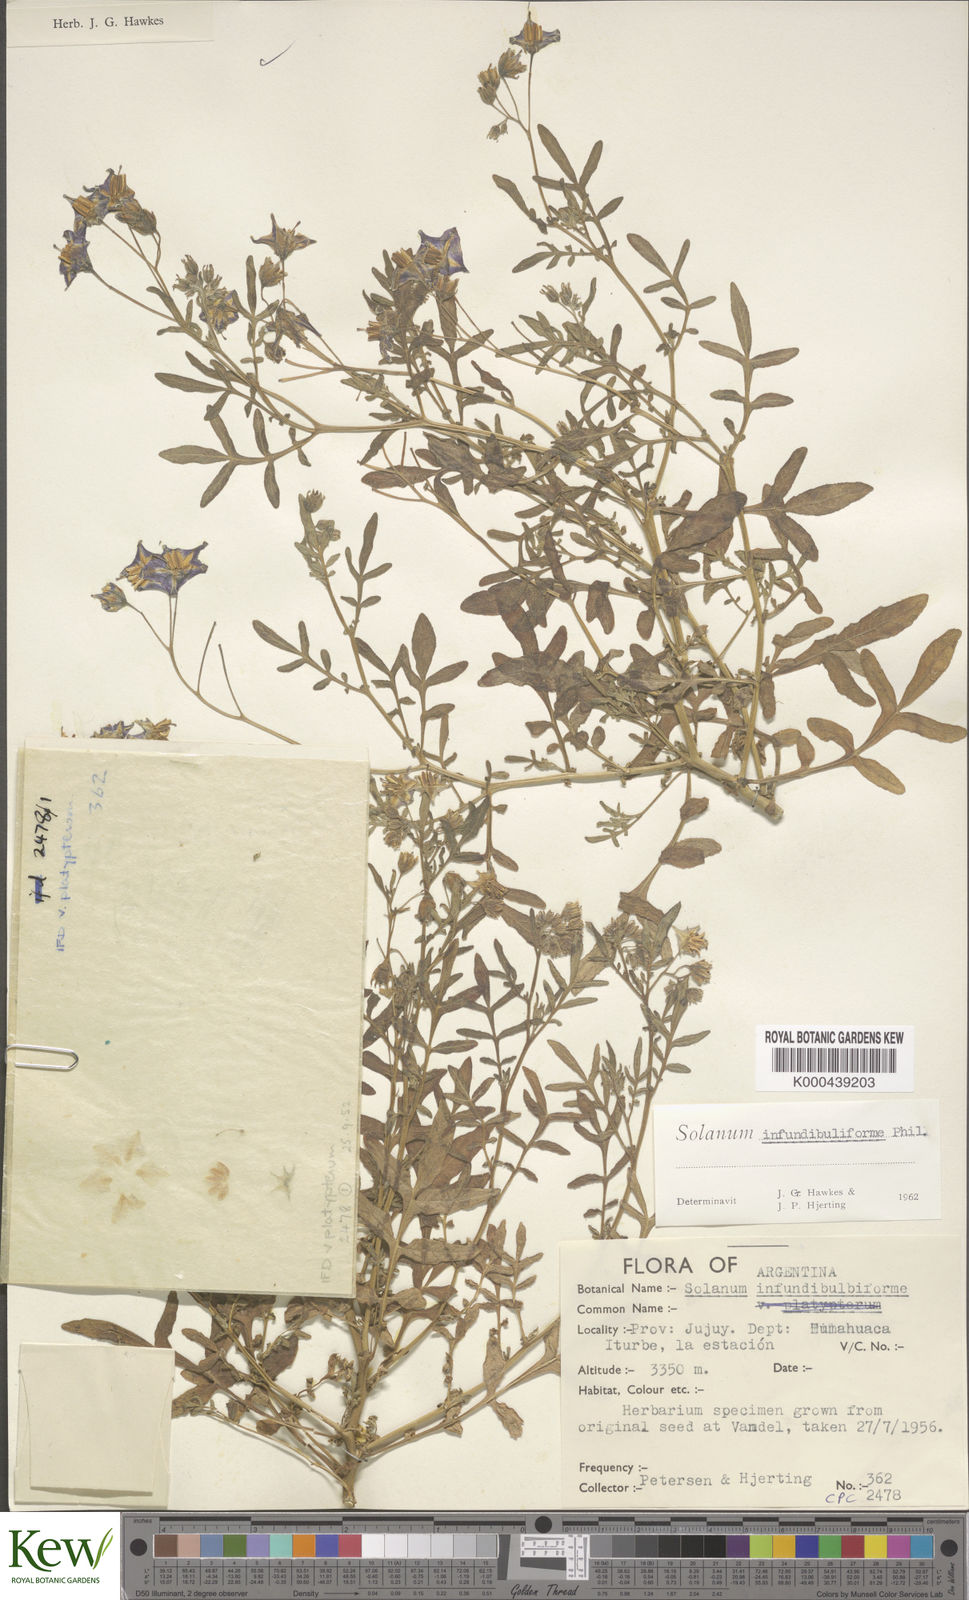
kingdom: Plantae
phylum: Tracheophyta
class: Magnoliopsida
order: Solanales
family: Solanaceae
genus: Solanum
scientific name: Solanum infundibuliforme
